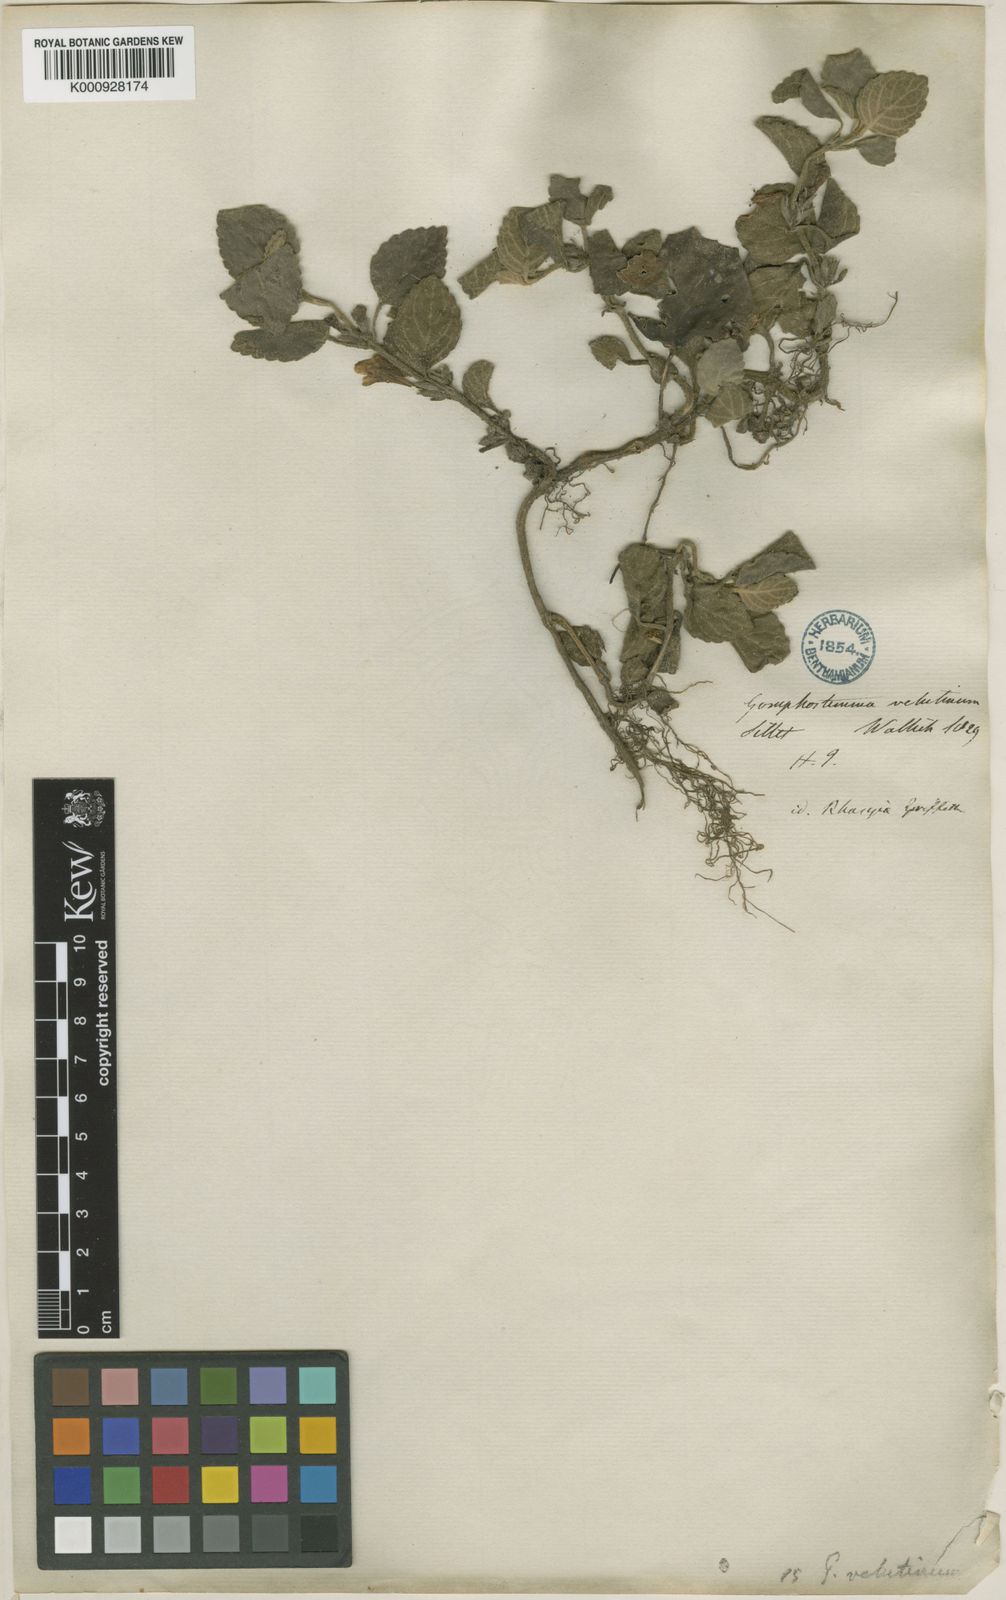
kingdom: Plantae
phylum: Tracheophyta
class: Magnoliopsida
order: Lamiales
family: Lamiaceae
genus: Gomphostemma
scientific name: Gomphostemma velutinum
